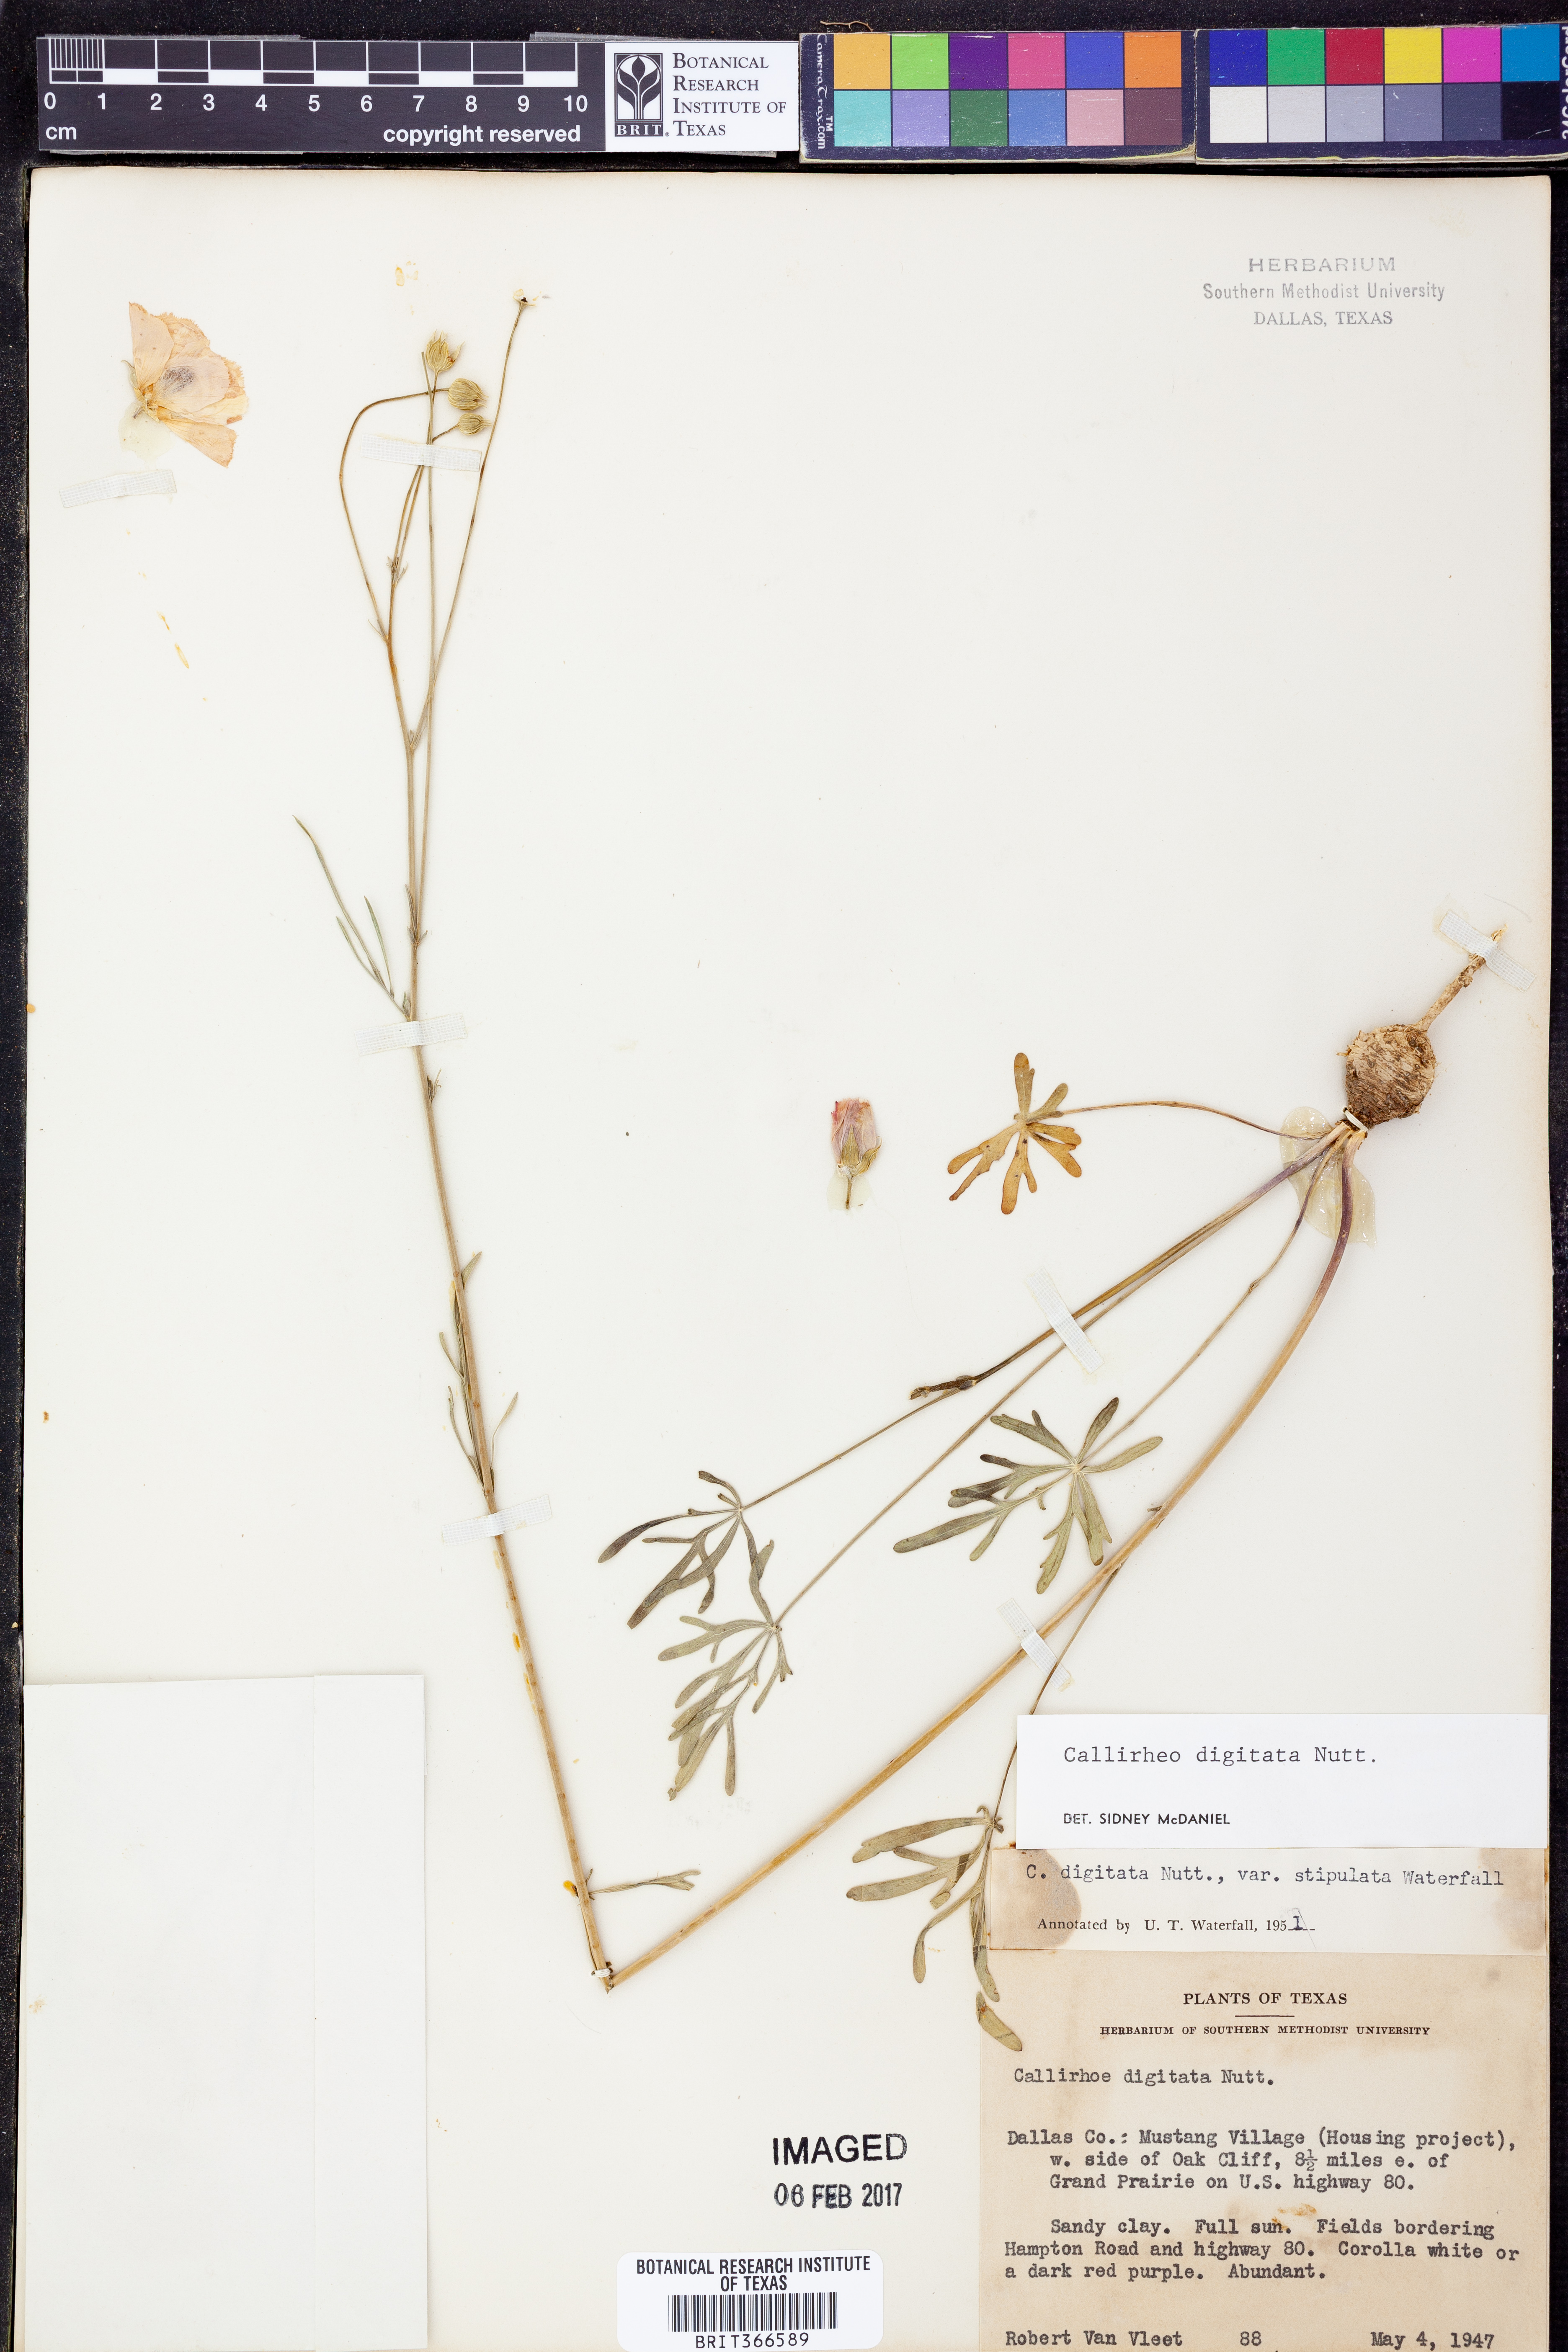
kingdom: Plantae
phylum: Tracheophyta
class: Magnoliopsida
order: Malvales
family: Malvaceae
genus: Callirhoe
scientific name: Callirhoe digitata
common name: Finger poppy-mallow
